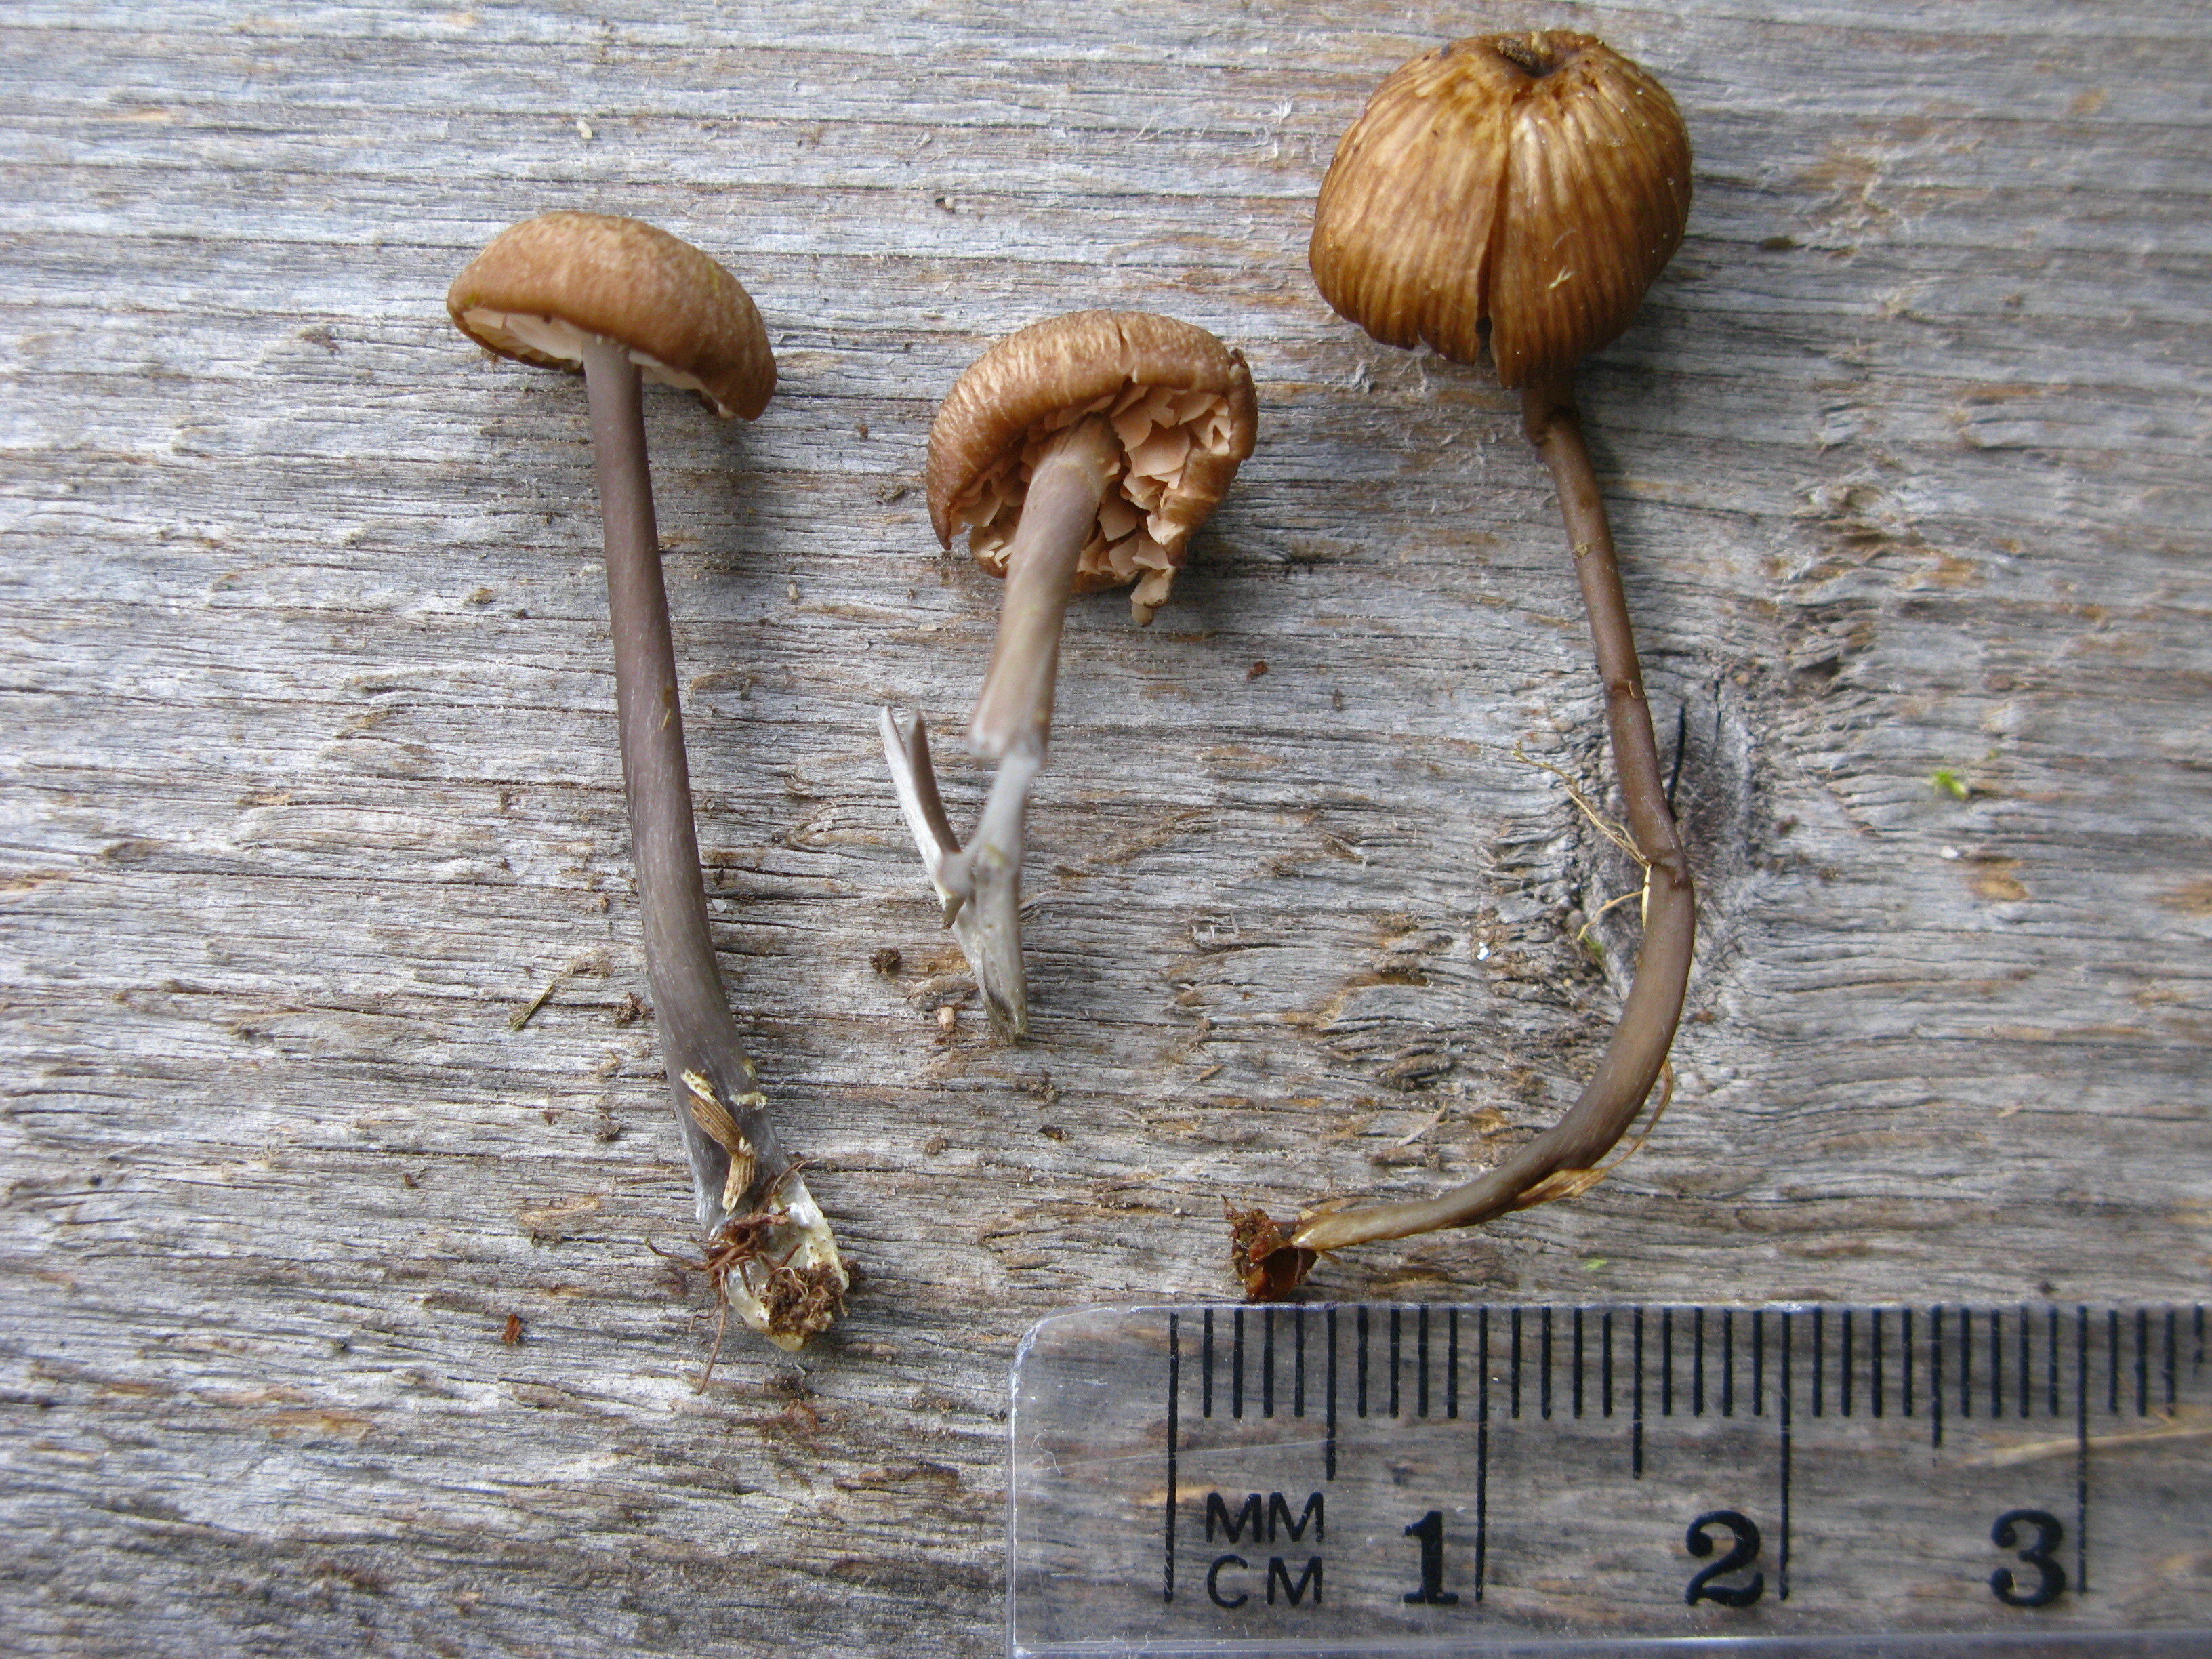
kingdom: Fungi
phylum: Basidiomycota
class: Agaricomycetes
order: Agaricales
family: Entolomataceae
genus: Entoloma
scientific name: Entoloma
